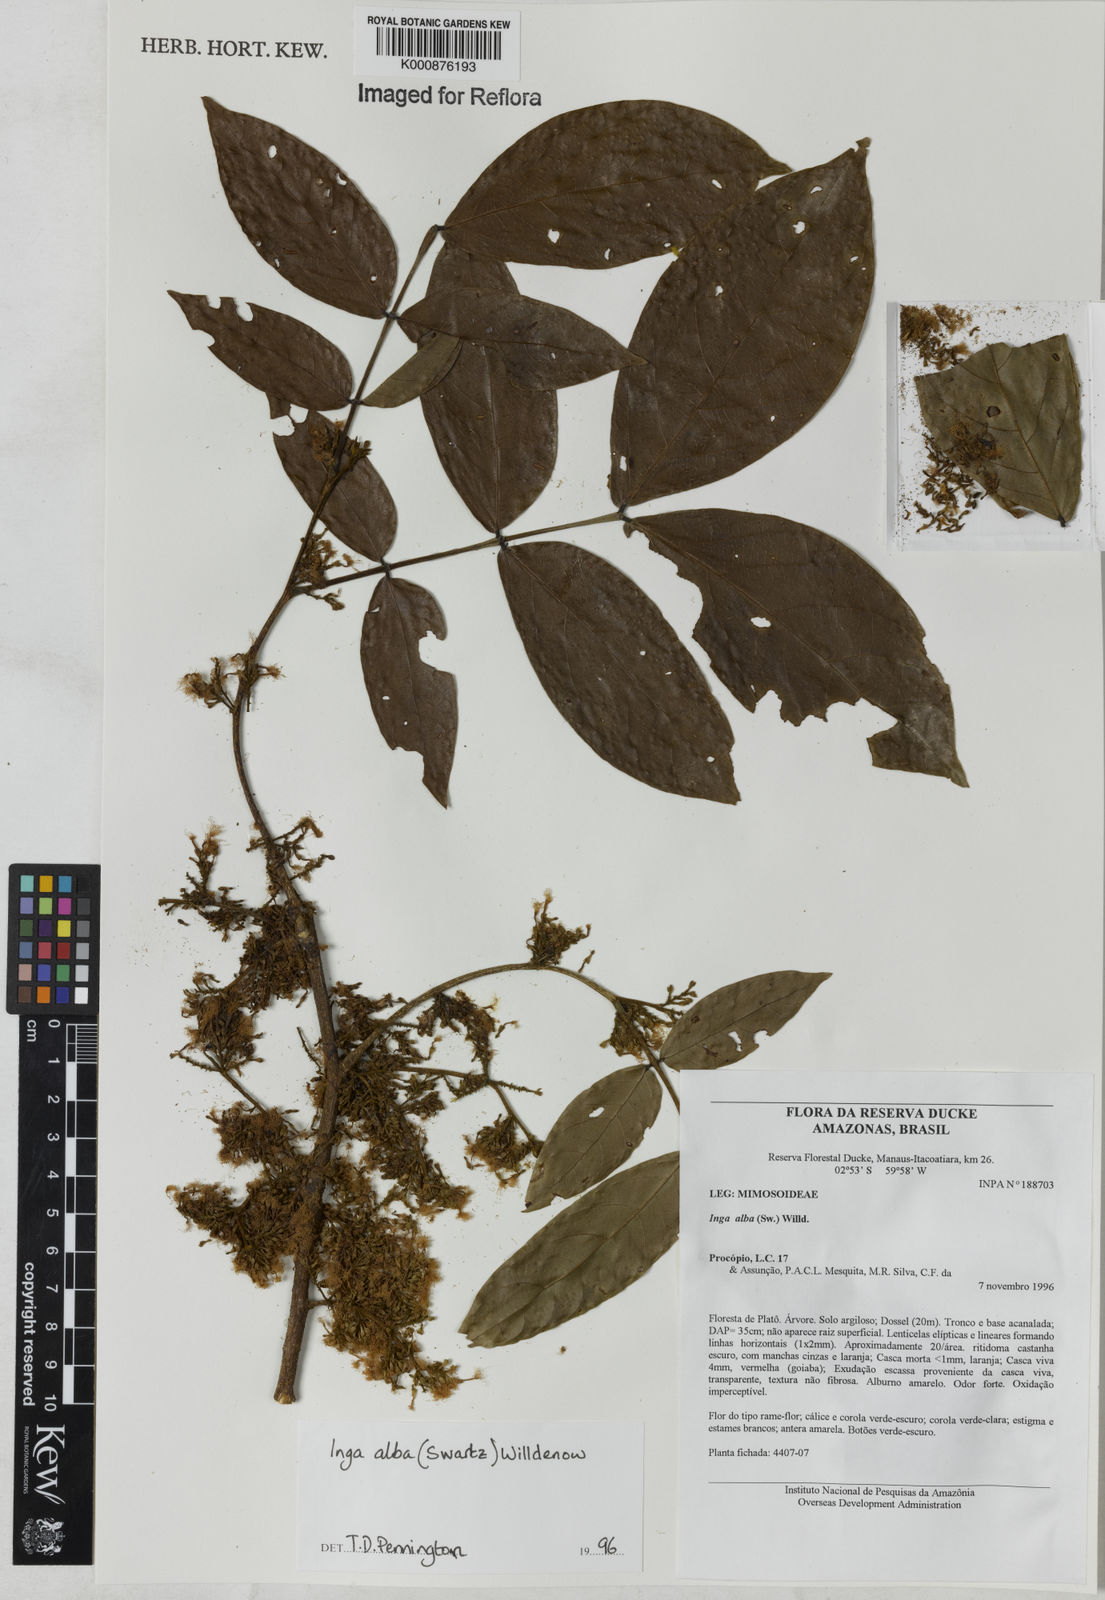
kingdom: Plantae
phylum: Tracheophyta
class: Magnoliopsida
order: Fabales
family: Fabaceae
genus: Inga
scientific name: Inga alba
